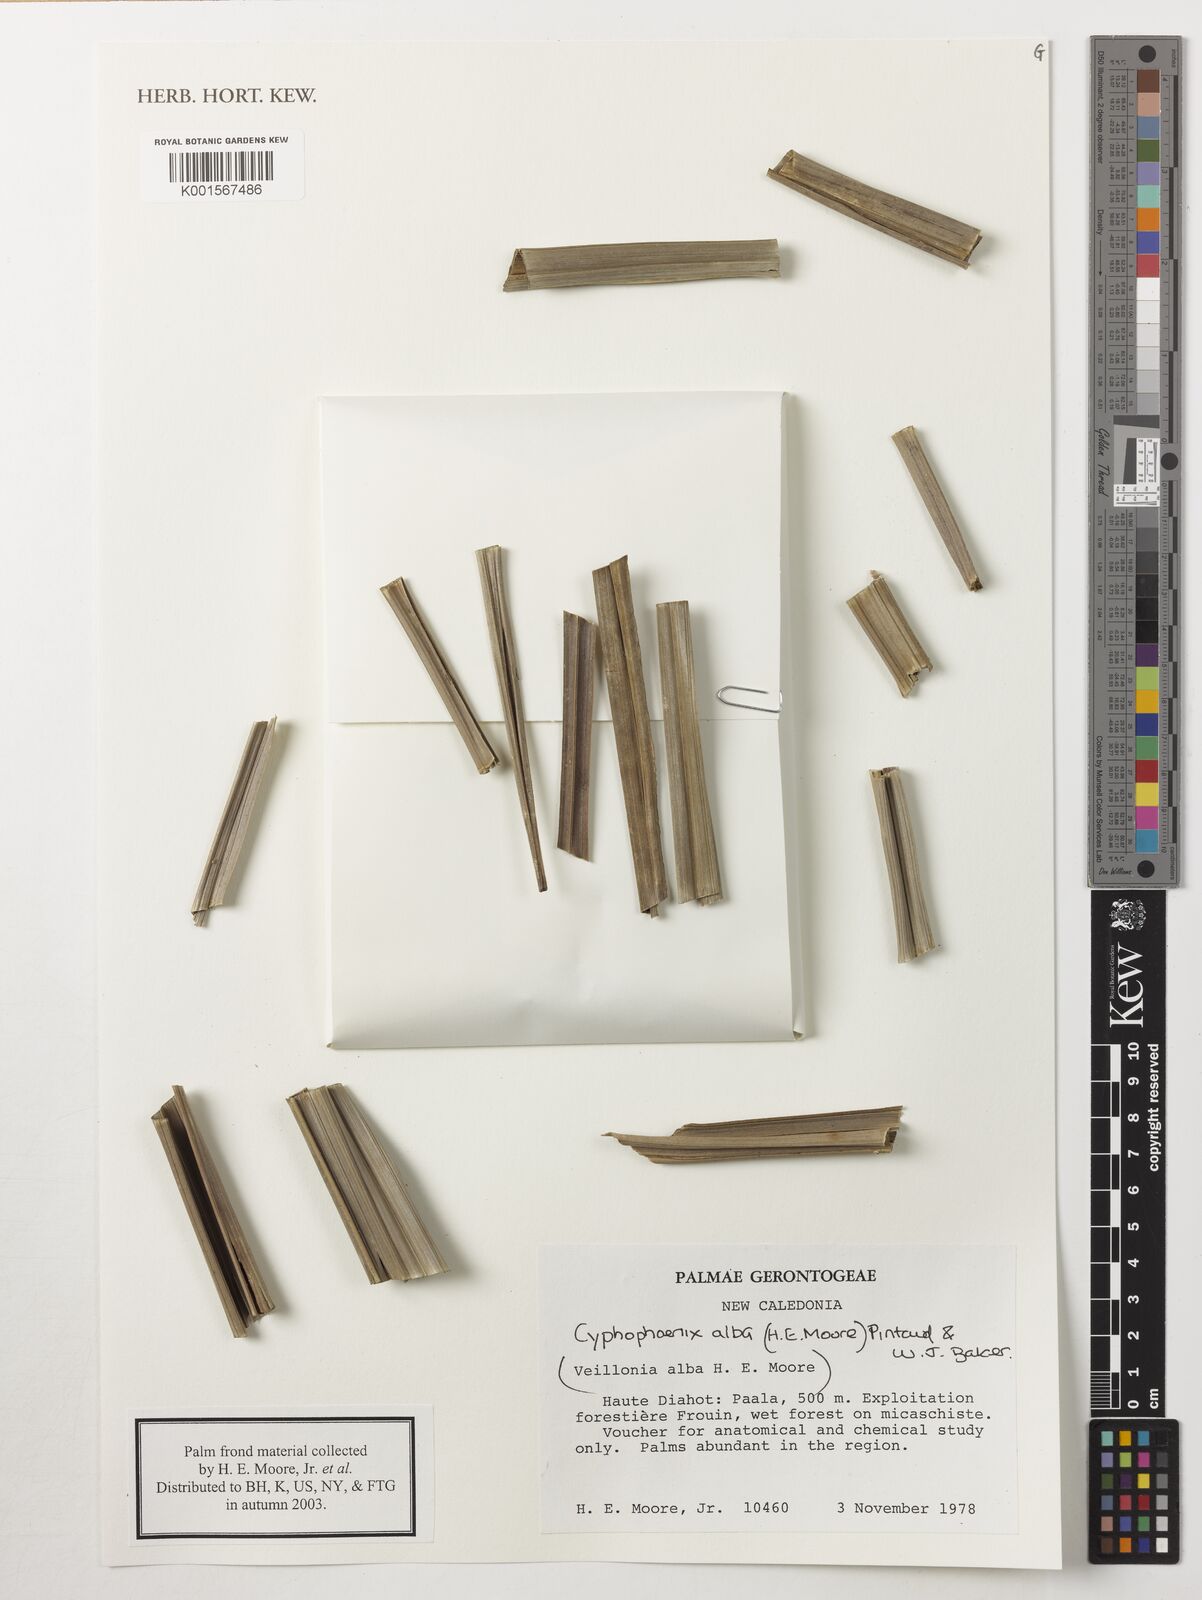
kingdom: Plantae
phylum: Tracheophyta
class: Liliopsida
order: Arecales
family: Arecaceae
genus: Cyphophoenix
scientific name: Cyphophoenix alba
